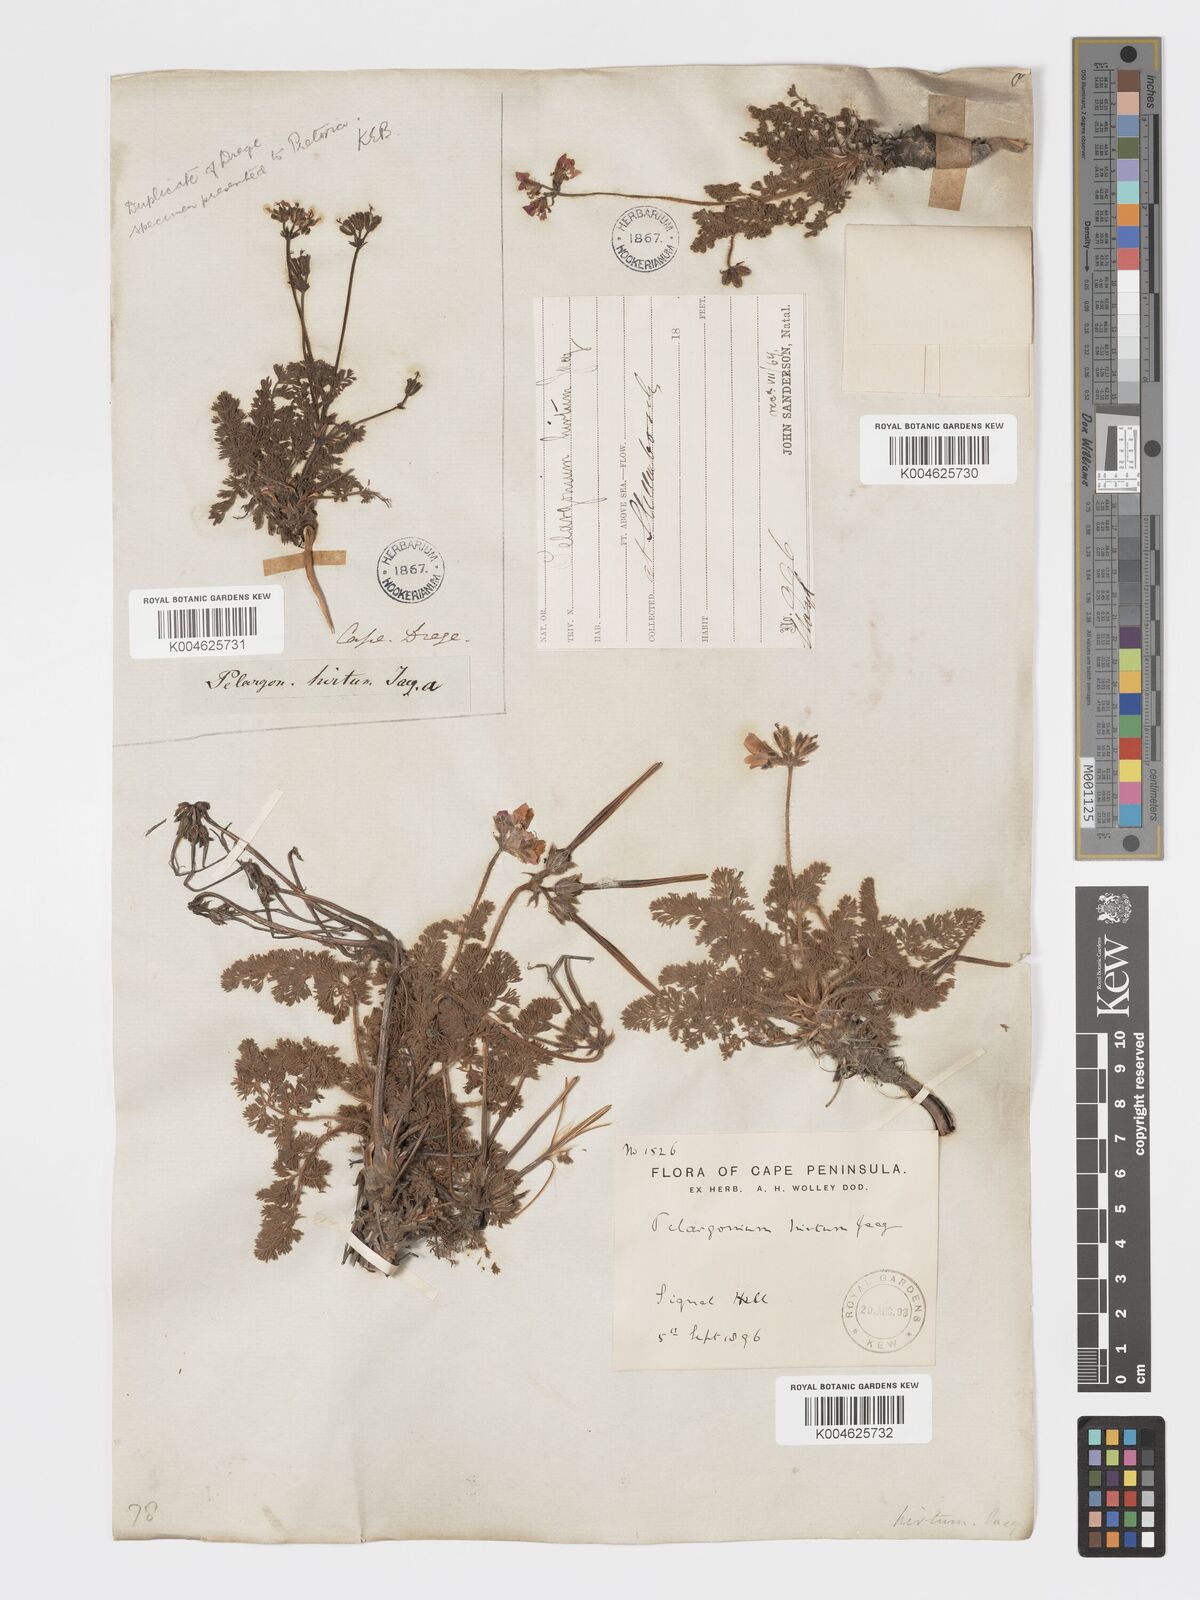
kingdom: Plantae
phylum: Tracheophyta
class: Magnoliopsida
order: Geraniales
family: Geraniaceae
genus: Pelargonium
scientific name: Pelargonium
